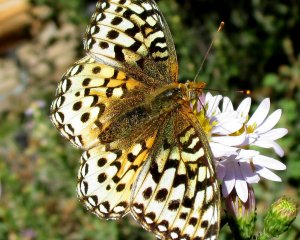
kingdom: Animalia
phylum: Arthropoda
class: Insecta
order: Lepidoptera
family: Nymphalidae
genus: Speyeria
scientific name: Speyeria coronis
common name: Coronis Fritillary
